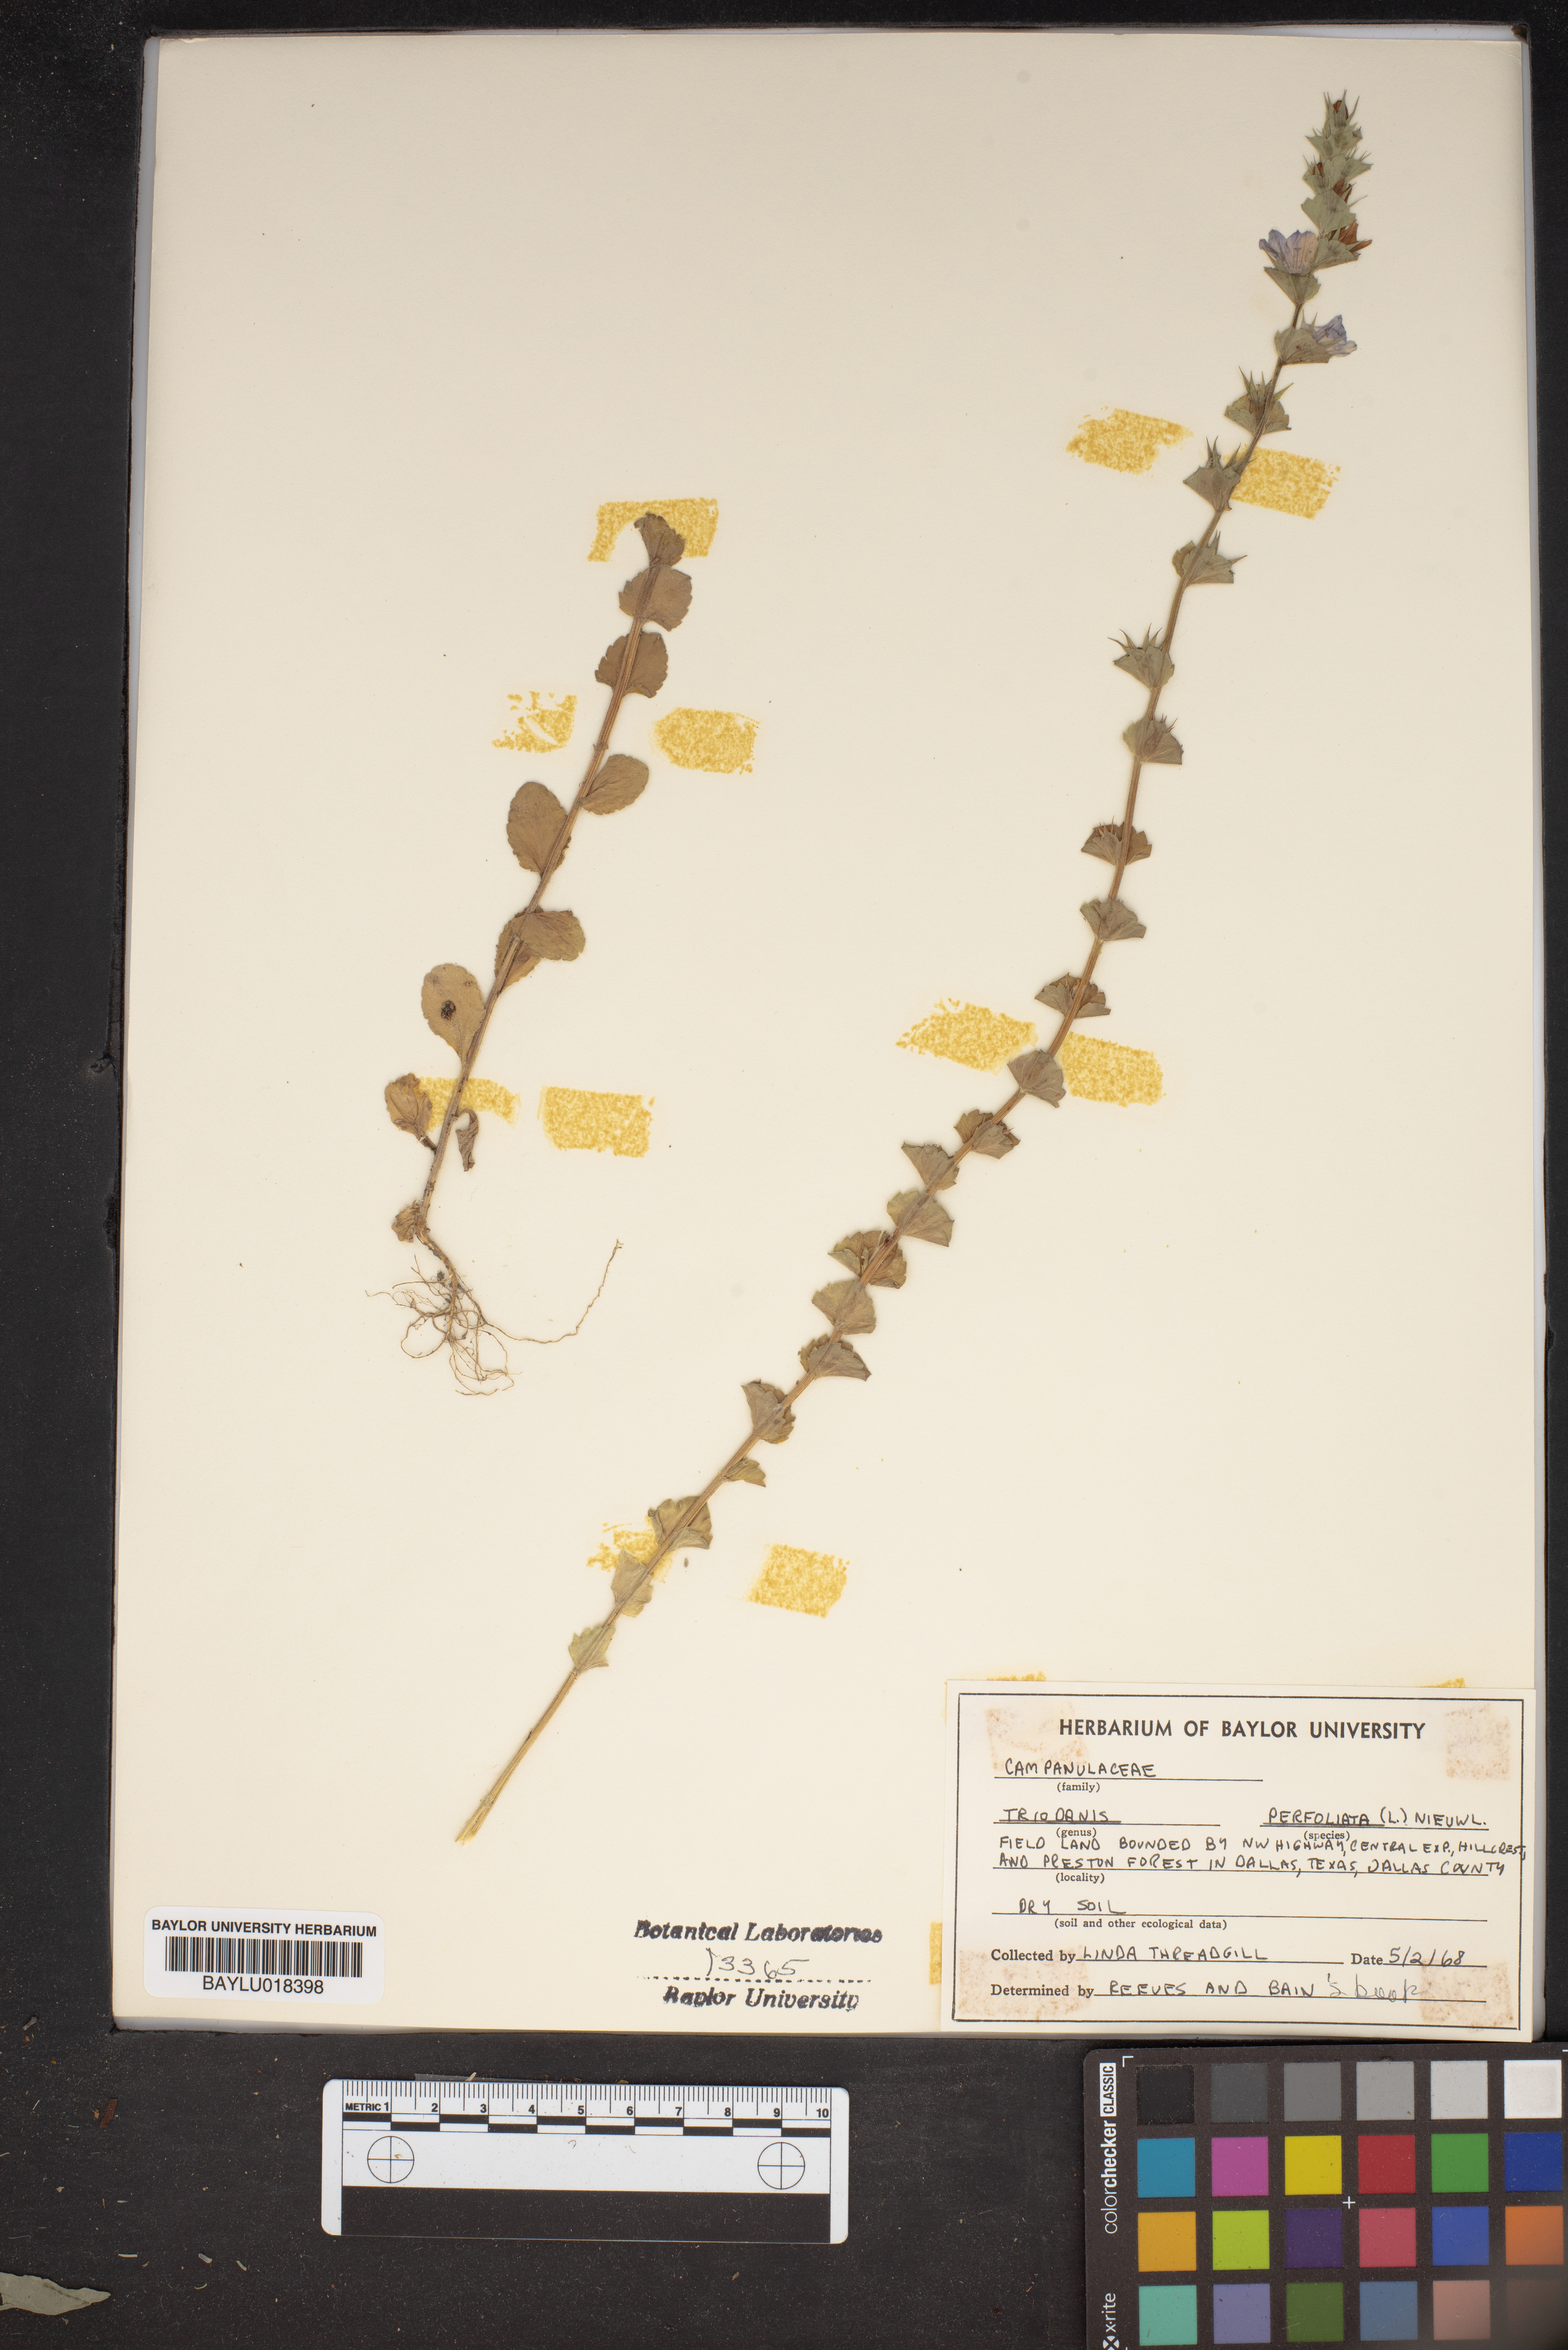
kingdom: Plantae
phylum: Tracheophyta
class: Magnoliopsida
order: Asterales
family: Campanulaceae
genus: Triodanis
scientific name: Triodanis perfoliata
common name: Clasping venus' looking-glass
